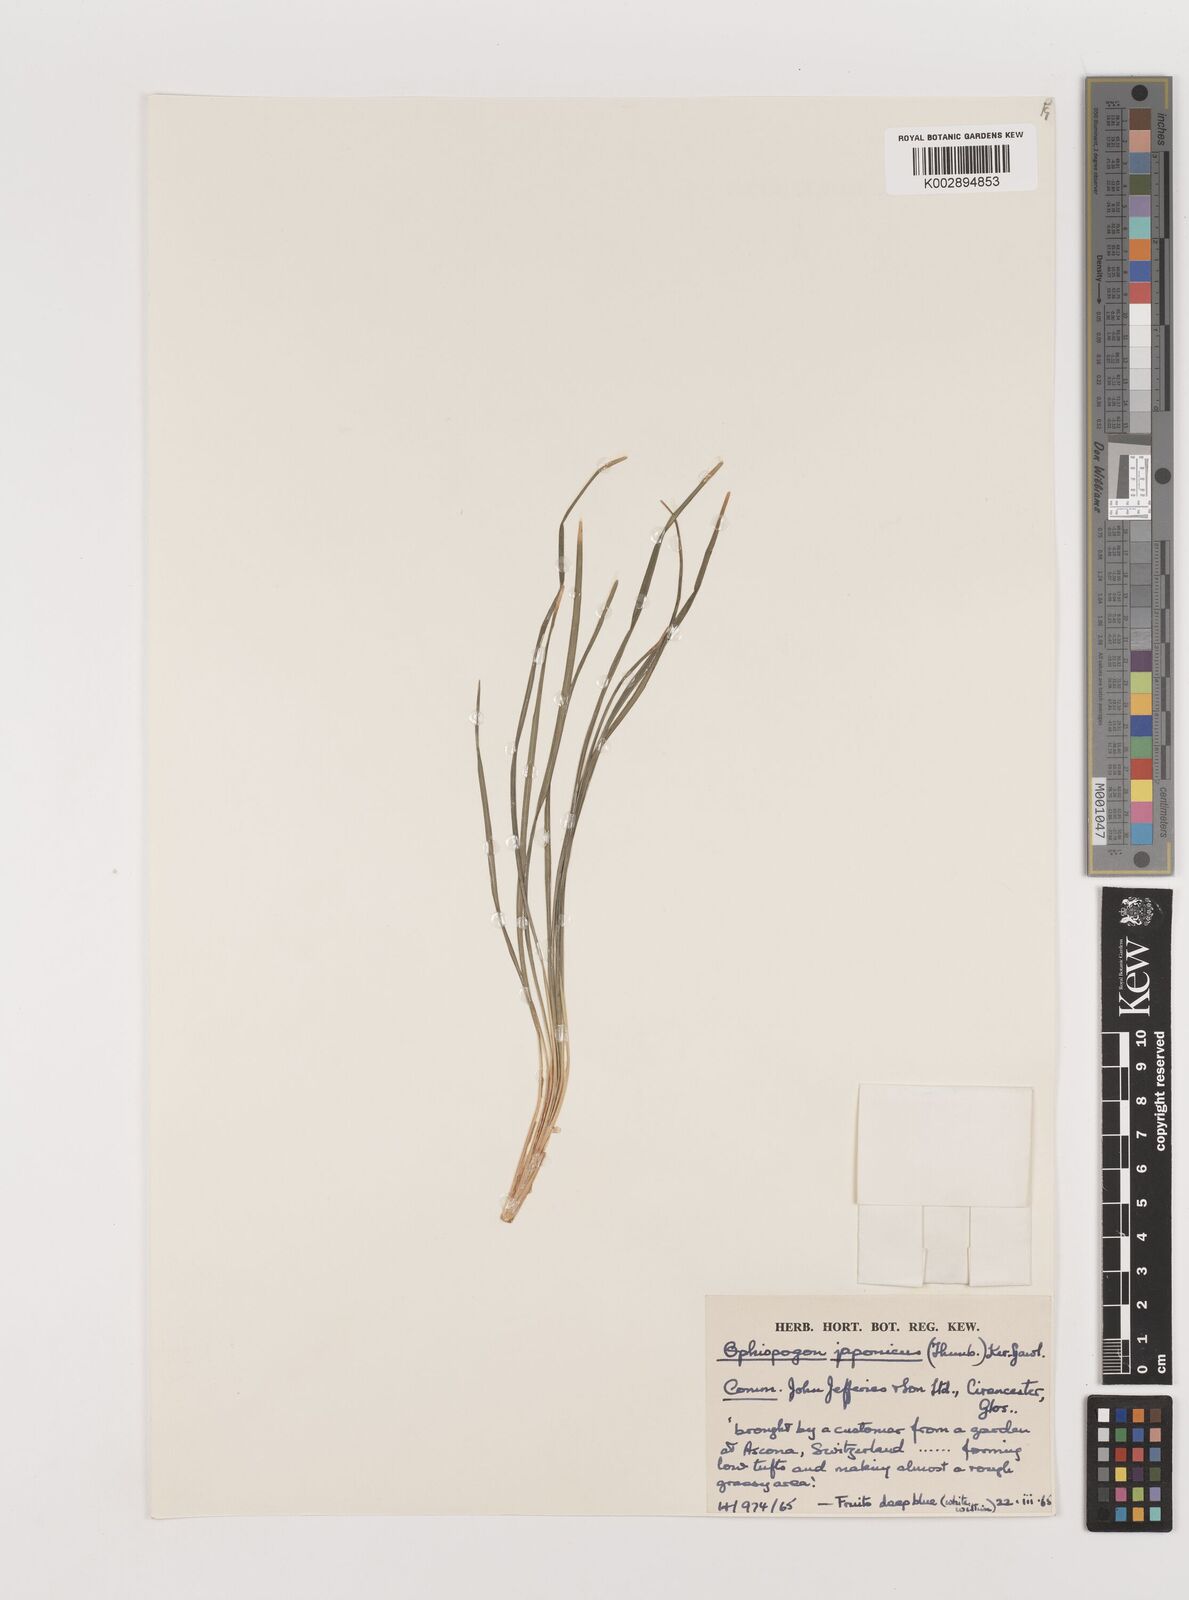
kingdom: Plantae
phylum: Tracheophyta
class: Liliopsida
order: Asparagales
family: Asparagaceae
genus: Ophiopogon
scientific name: Ophiopogon japonicus
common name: Dwarf lilyturf
